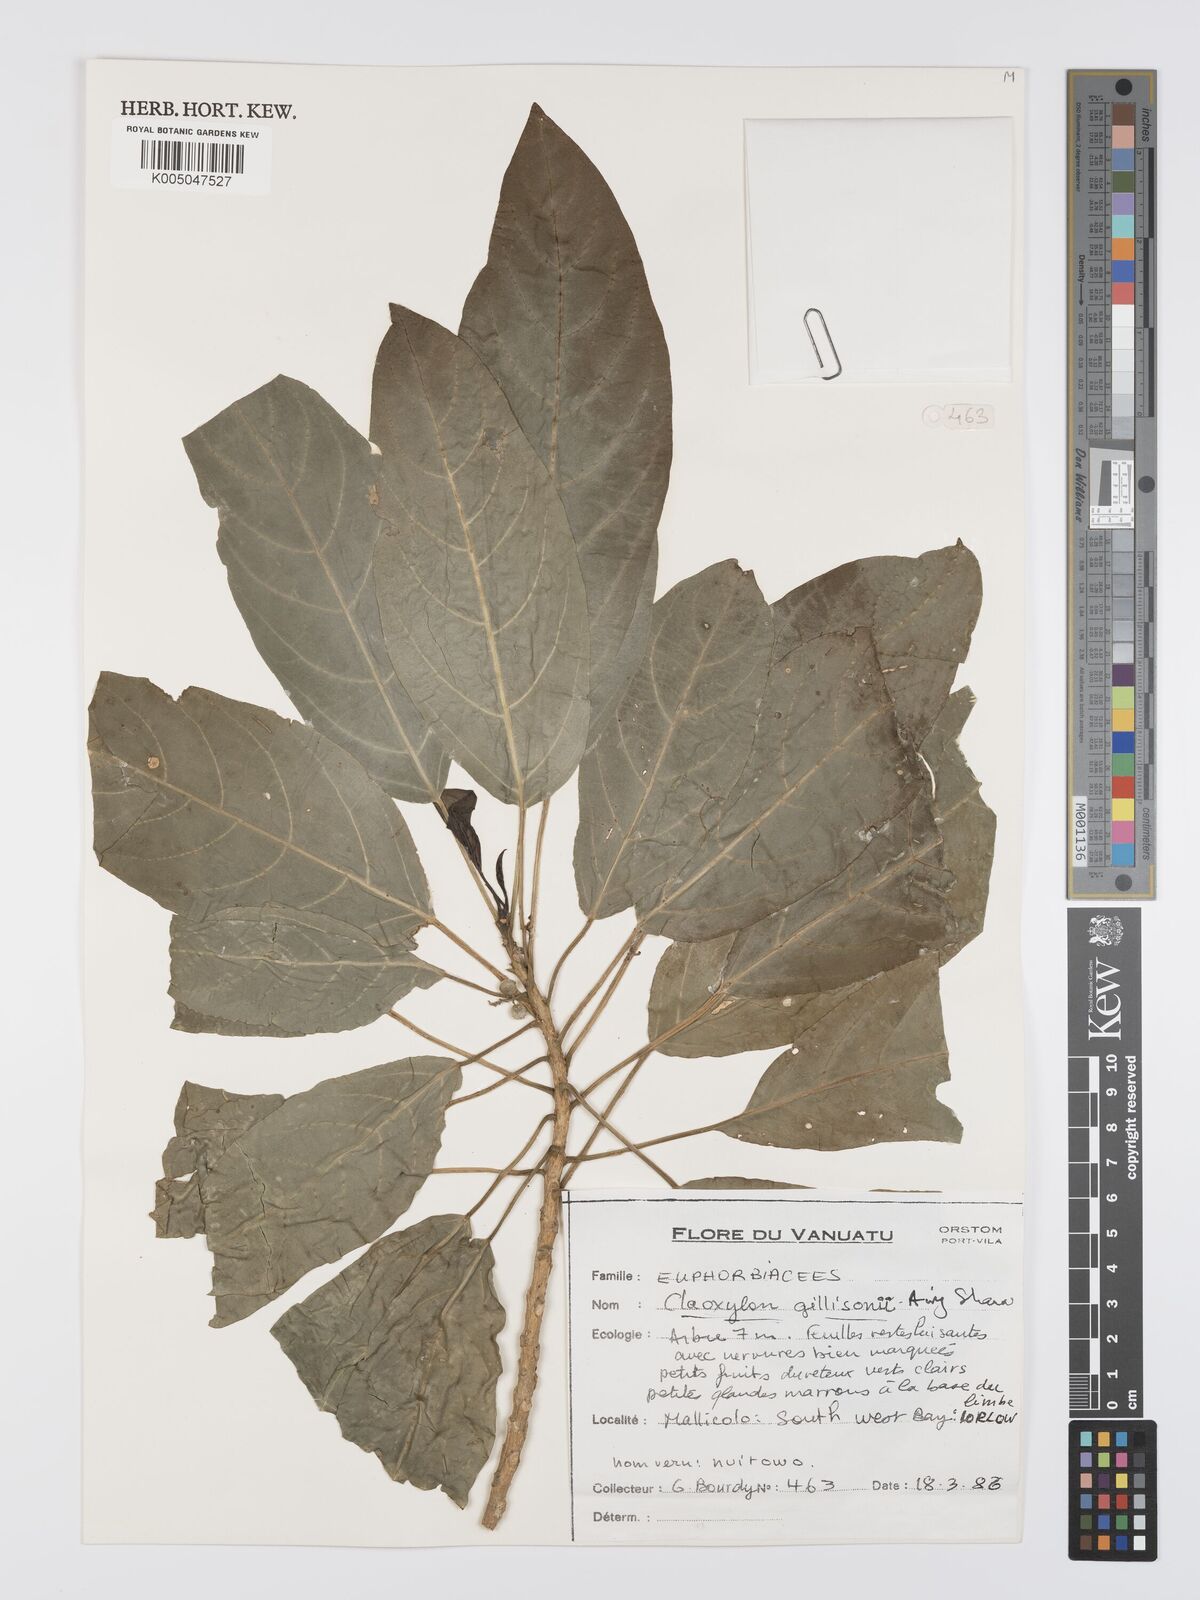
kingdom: Plantae
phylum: Tracheophyta
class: Magnoliopsida
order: Malpighiales
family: Euphorbiaceae
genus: Claoxylon
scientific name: Claoxylon gillisonii
